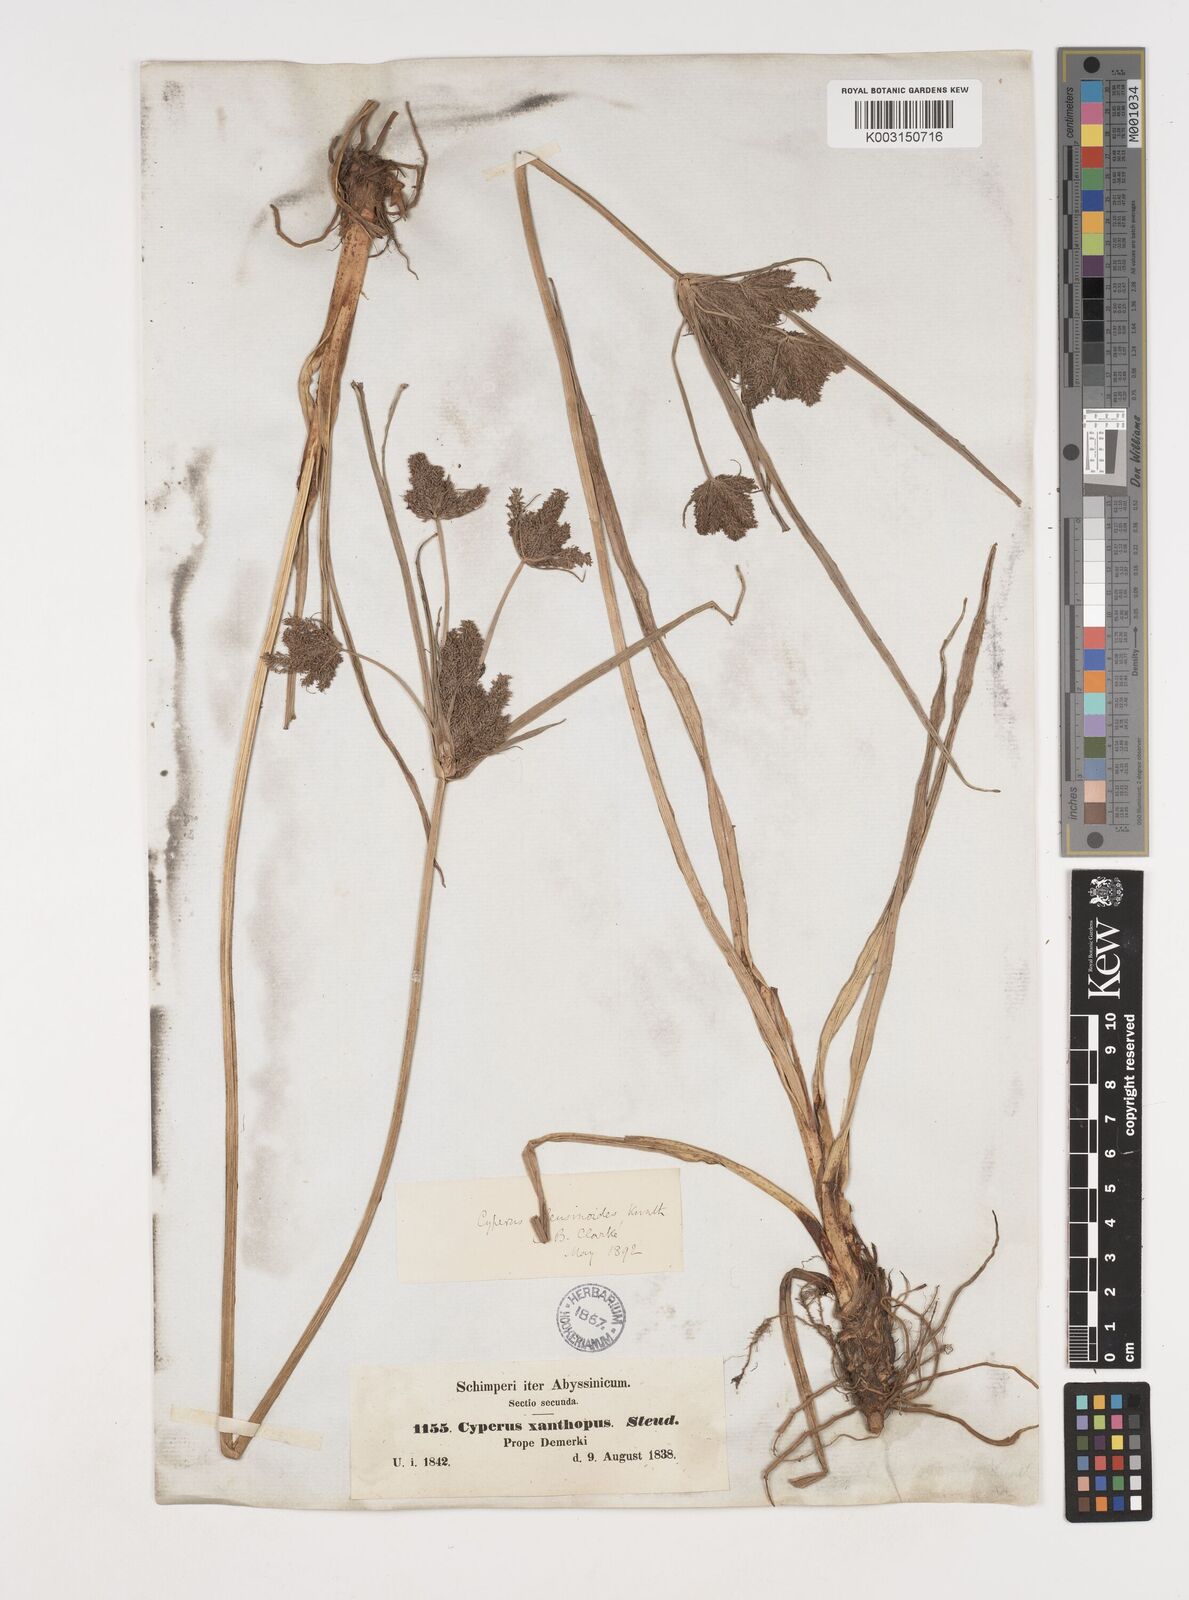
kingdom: Plantae
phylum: Tracheophyta
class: Liliopsida
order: Poales
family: Cyperaceae
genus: Cyperus
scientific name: Cyperus nutans
